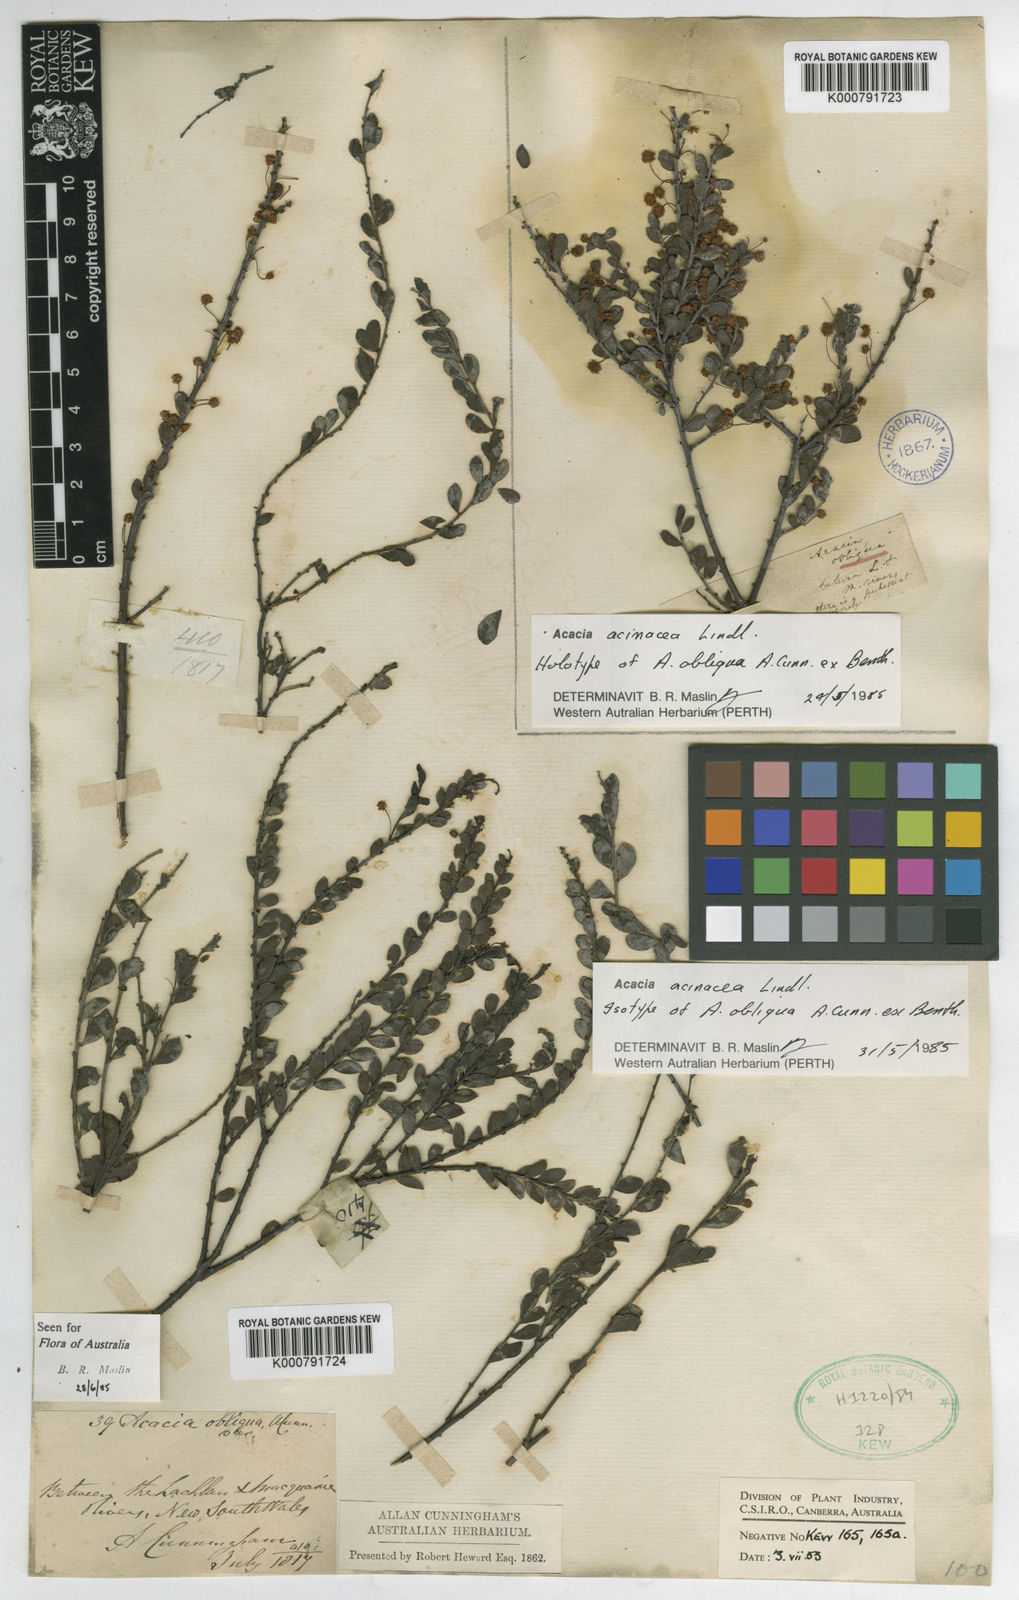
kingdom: Plantae
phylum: Tracheophyta
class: Magnoliopsida
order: Fabales
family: Fabaceae
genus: Acacia
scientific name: Acacia acinacea
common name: Gold-dust acacia
